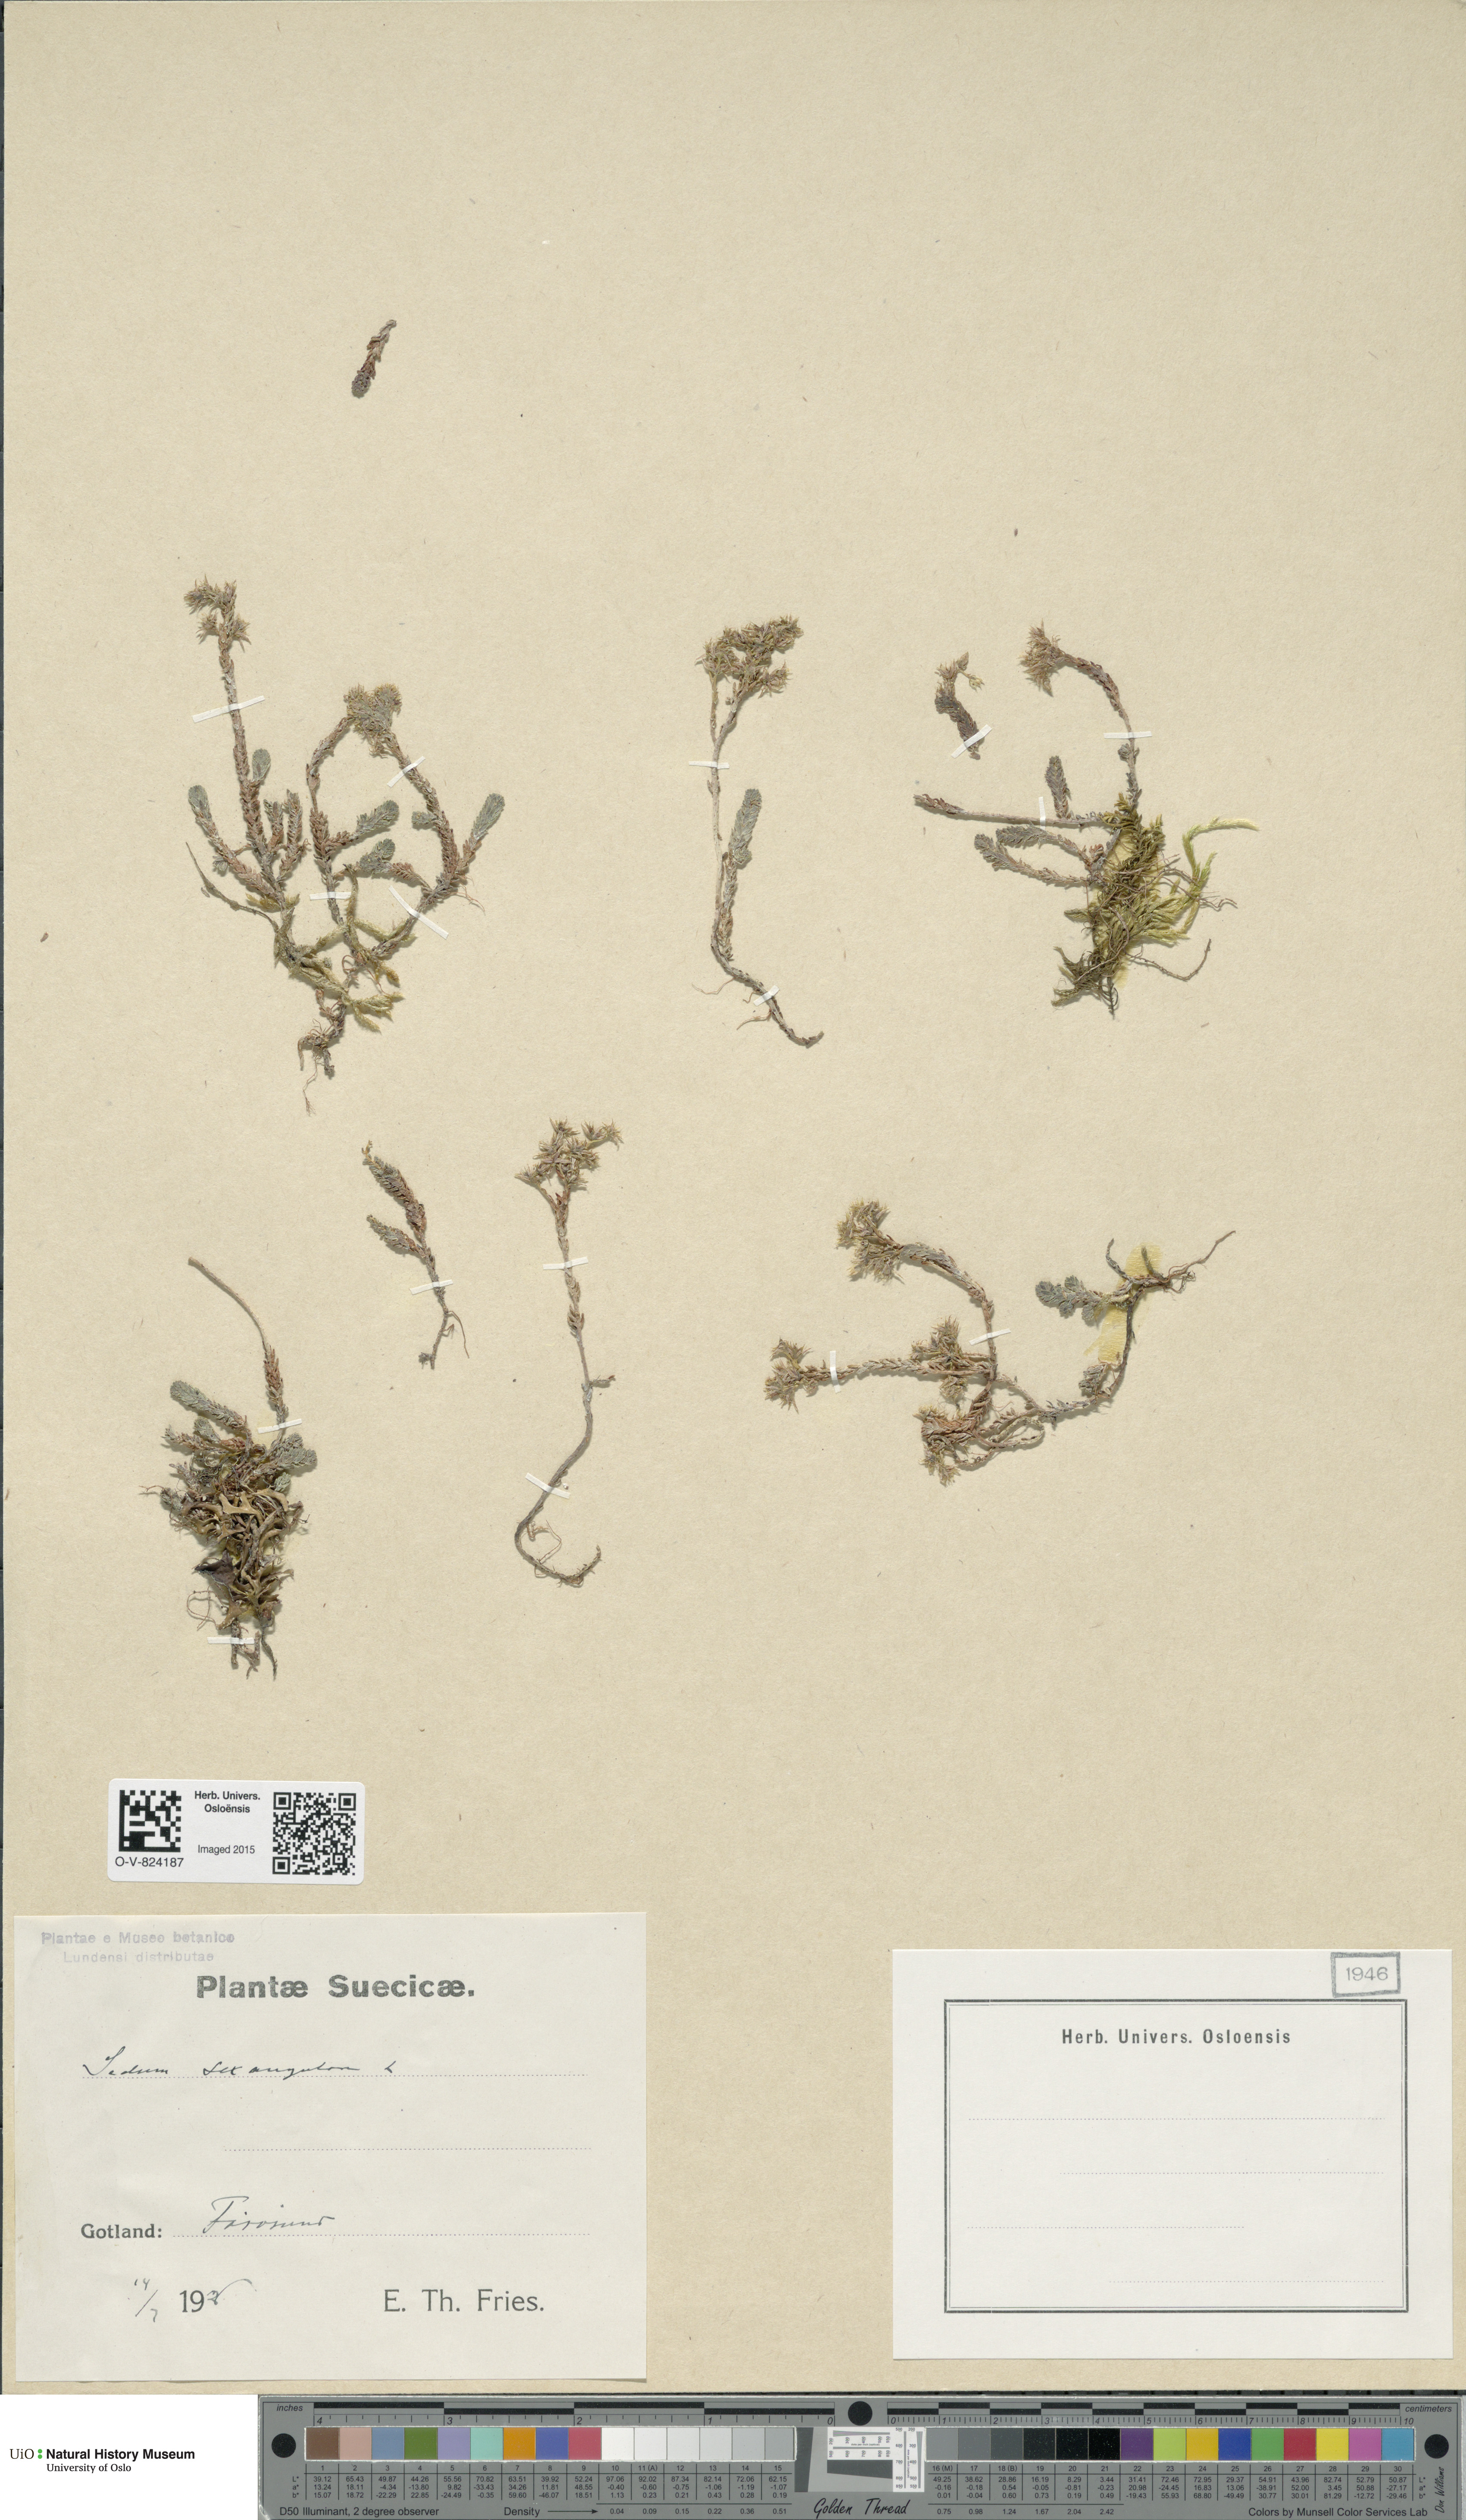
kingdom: Plantae
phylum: Tracheophyta
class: Magnoliopsida
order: Saxifragales
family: Crassulaceae
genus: Sedum
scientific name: Sedum sexangulare
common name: Tasteless stonecrop
